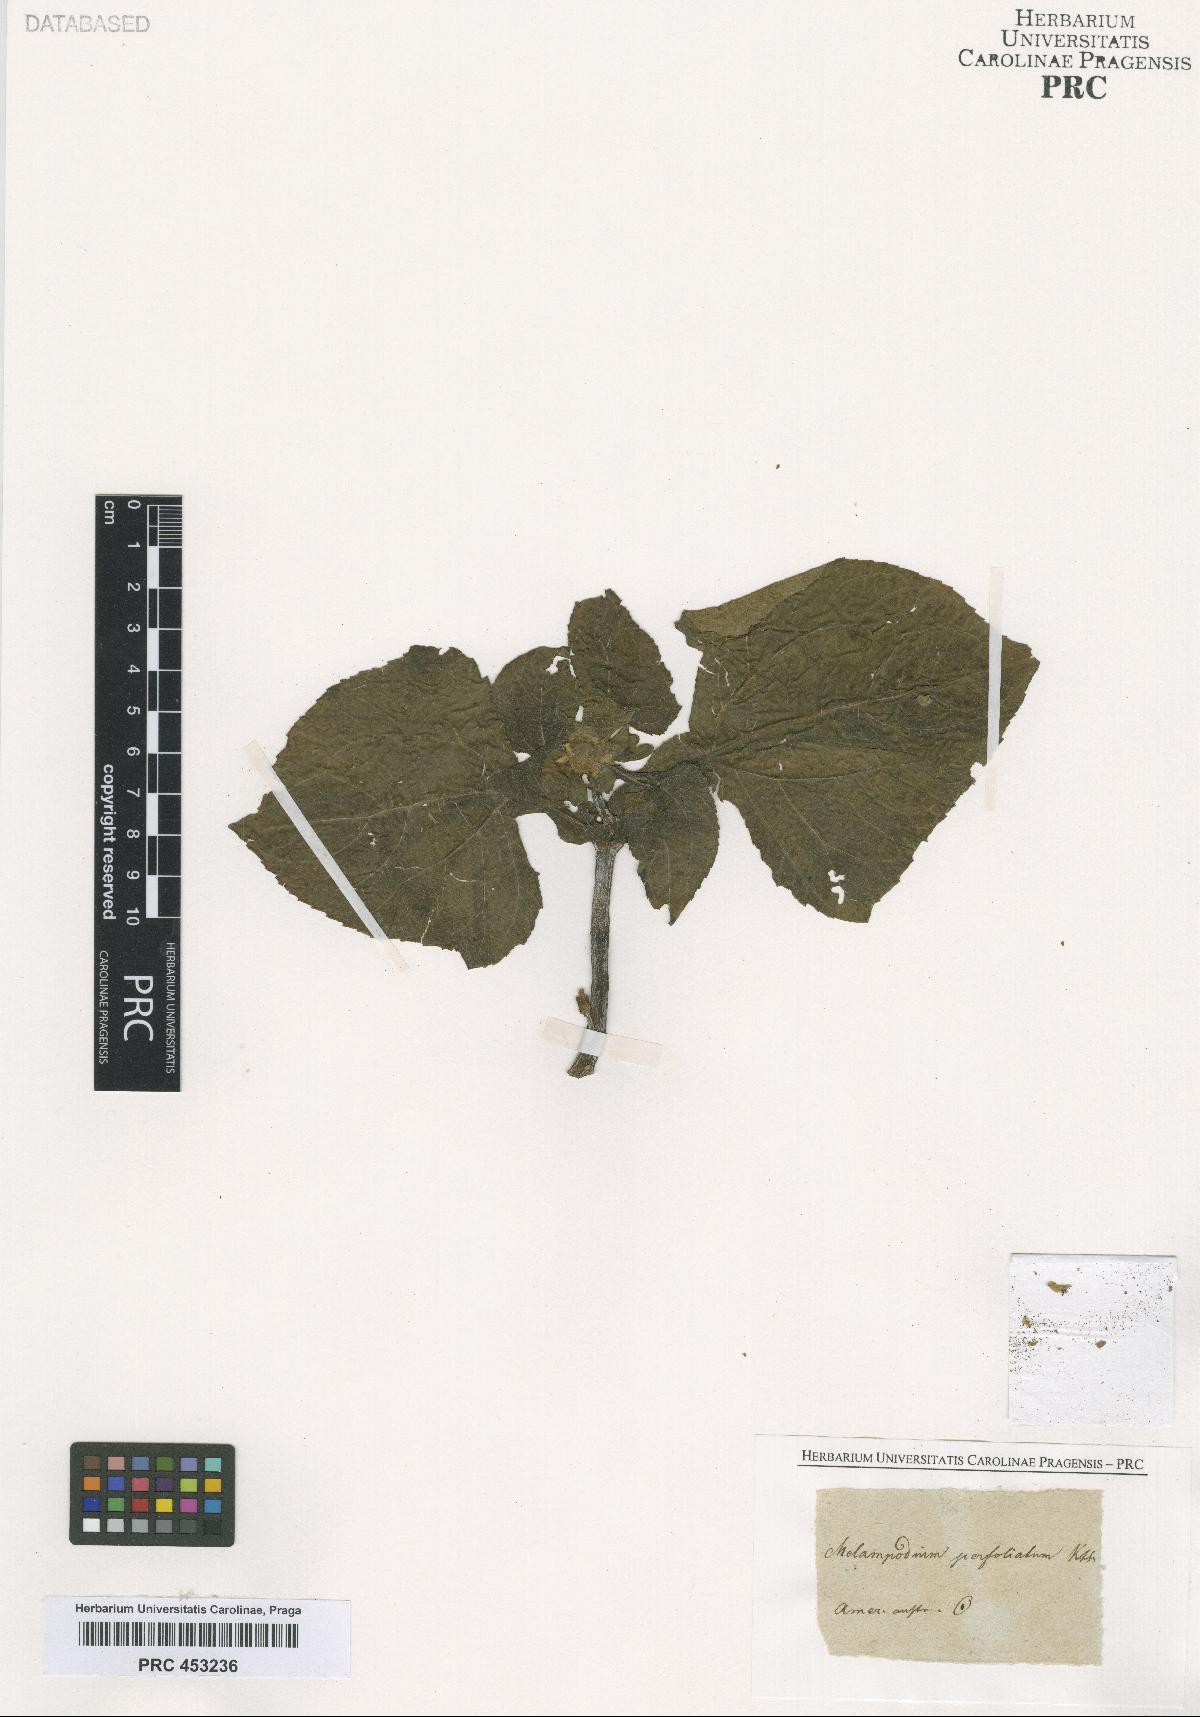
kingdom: Plantae
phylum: Tracheophyta
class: Magnoliopsida
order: Asterales
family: Asteraceae
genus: Melampodium
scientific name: Melampodium perfoliatum
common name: Perfoliate blackfoot
